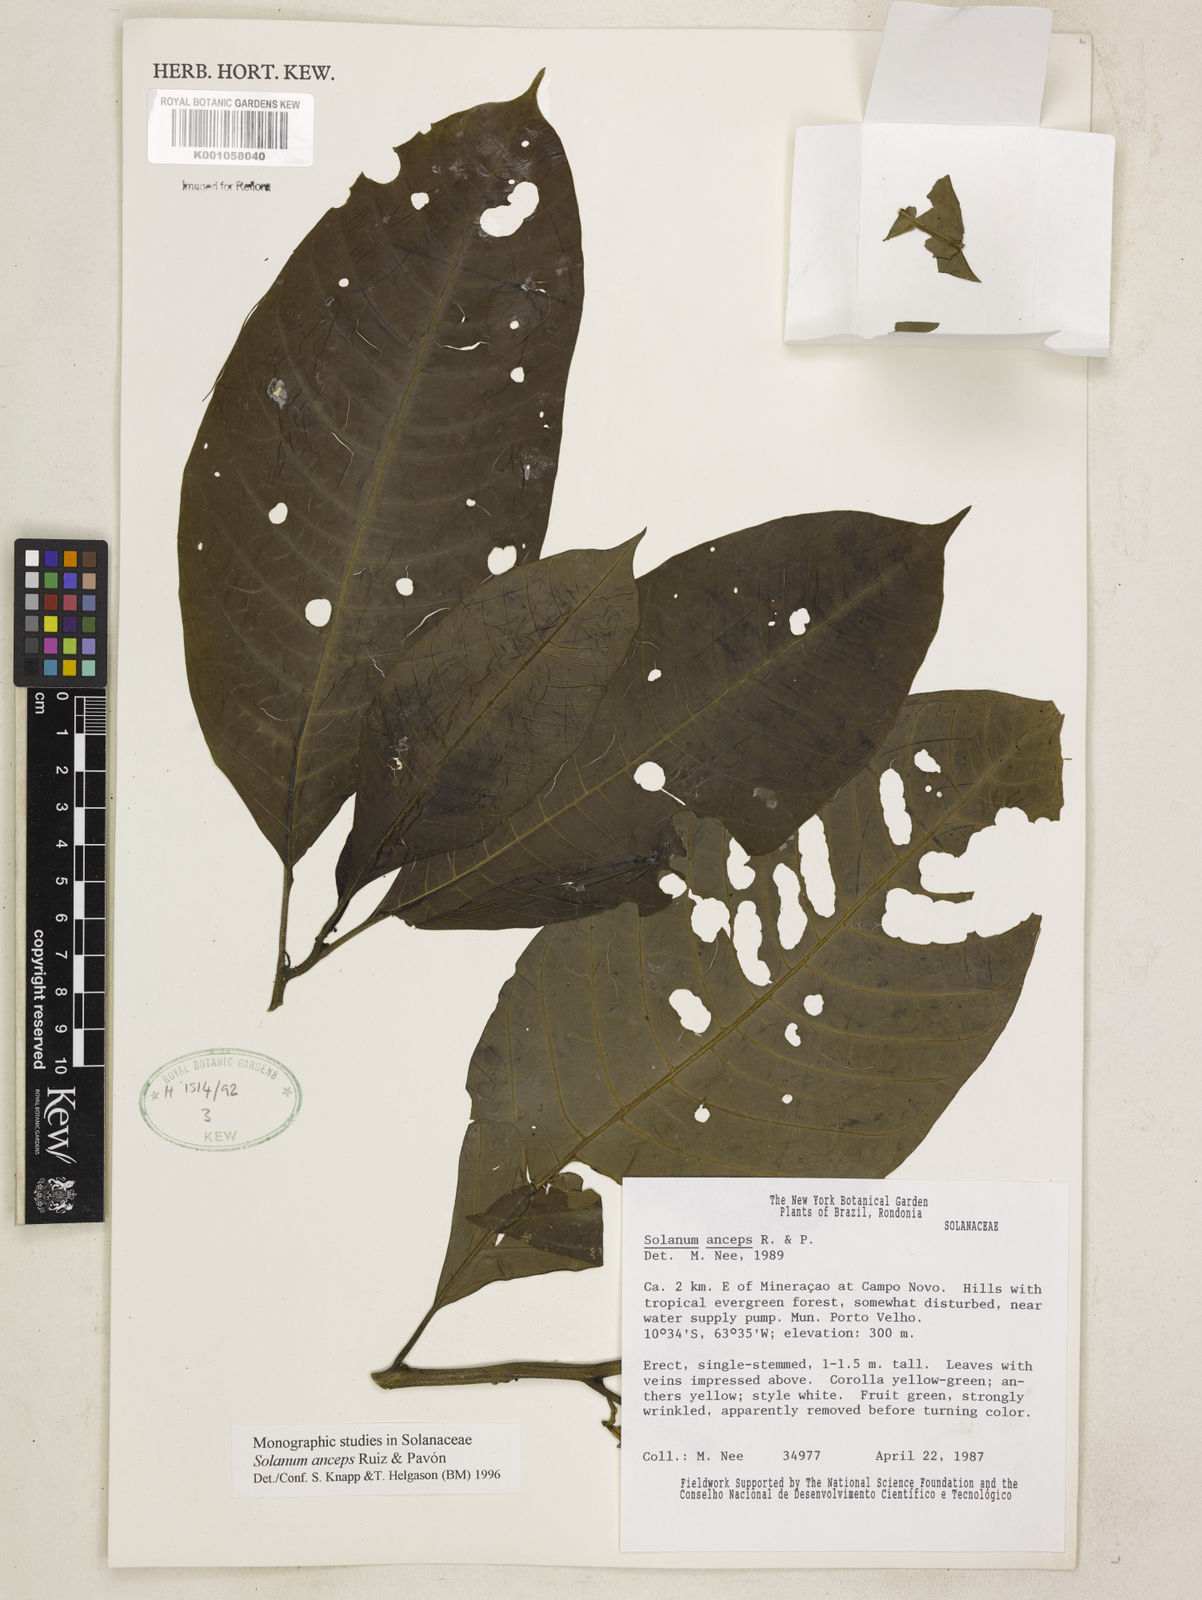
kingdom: Plantae
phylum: Tracheophyta
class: Magnoliopsida
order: Solanales
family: Solanaceae
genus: Solanum
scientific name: Solanum anceps
